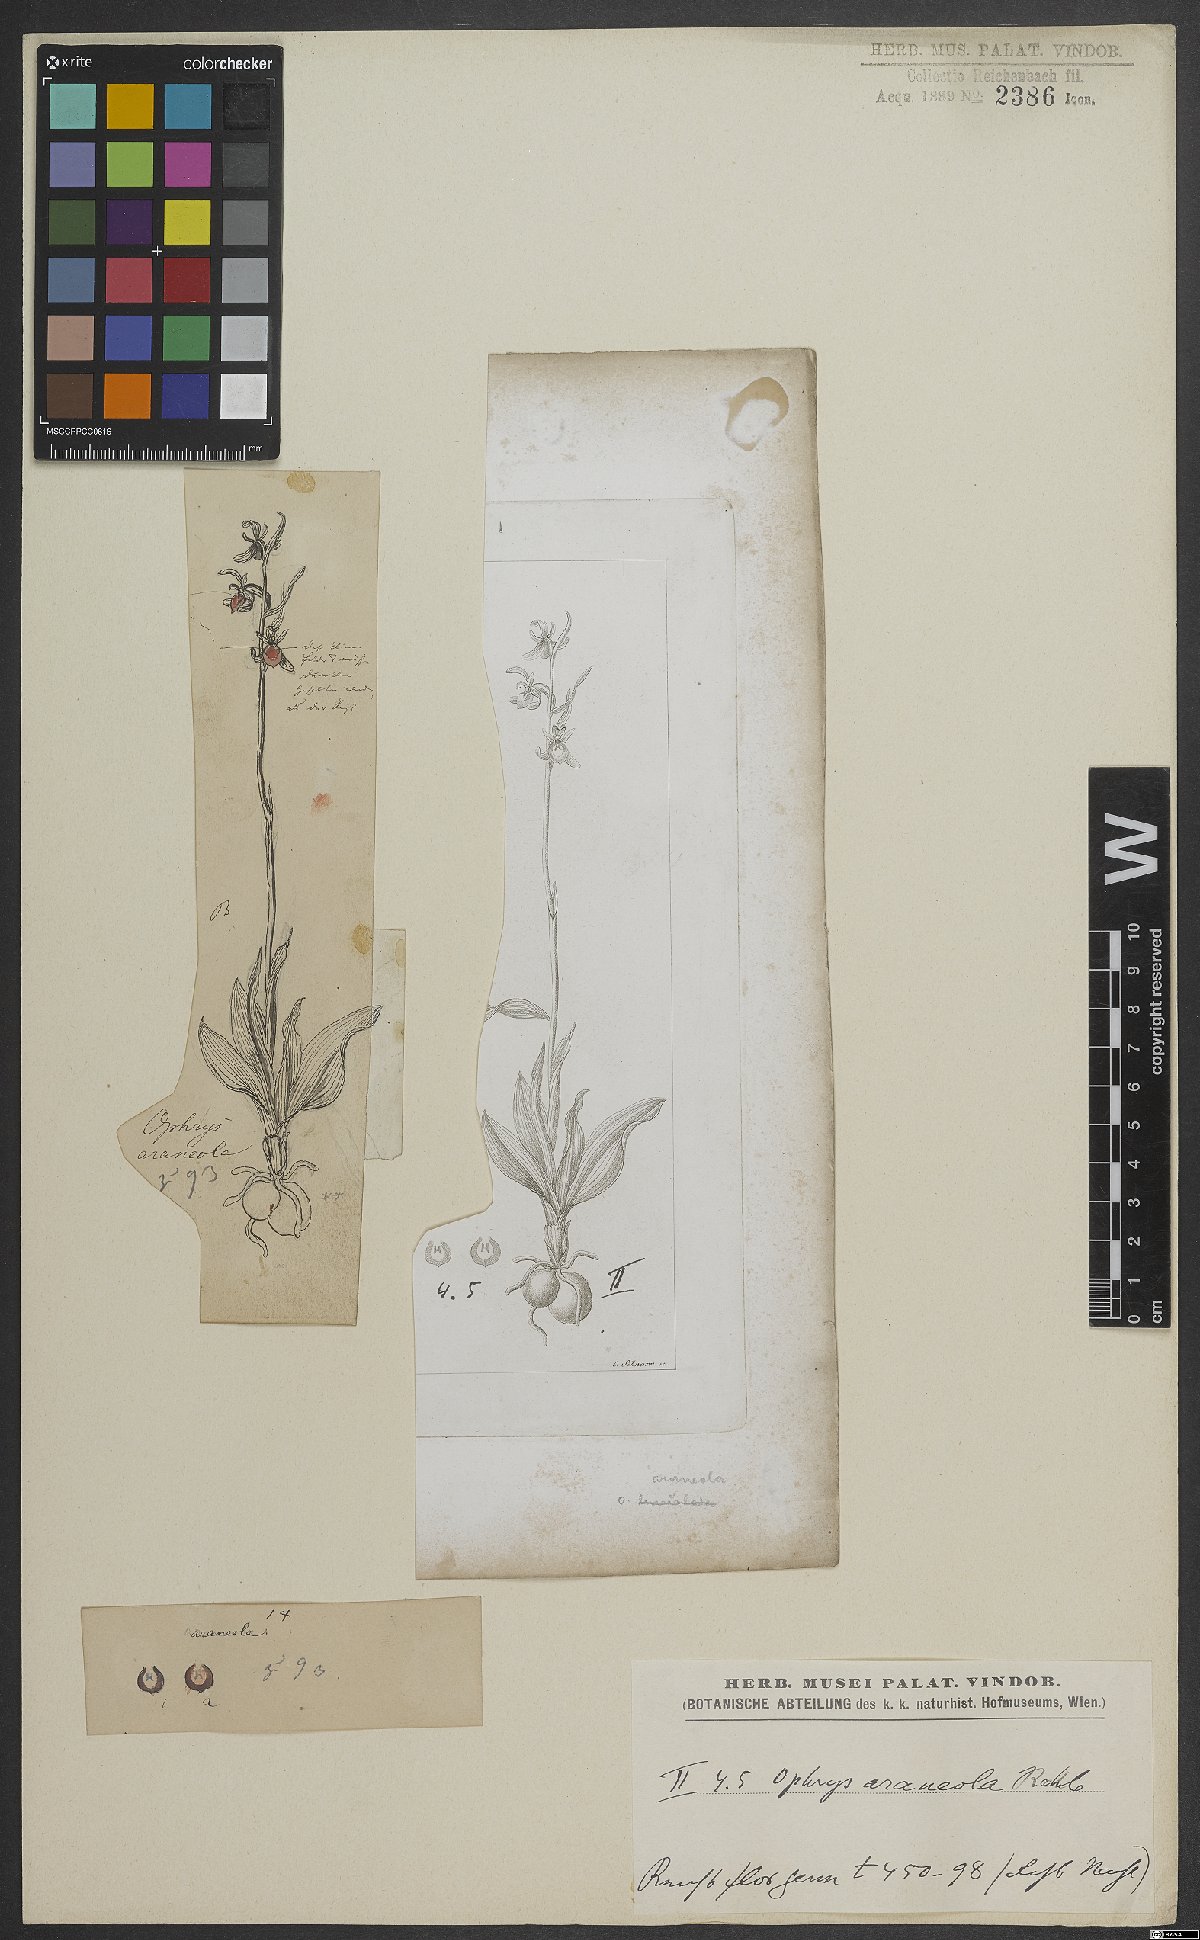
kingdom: Plantae
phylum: Tracheophyta
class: Liliopsida
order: Asparagales
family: Orchidaceae
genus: Ophrys
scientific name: Ophrys sphegodes
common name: Early spider-orchid
